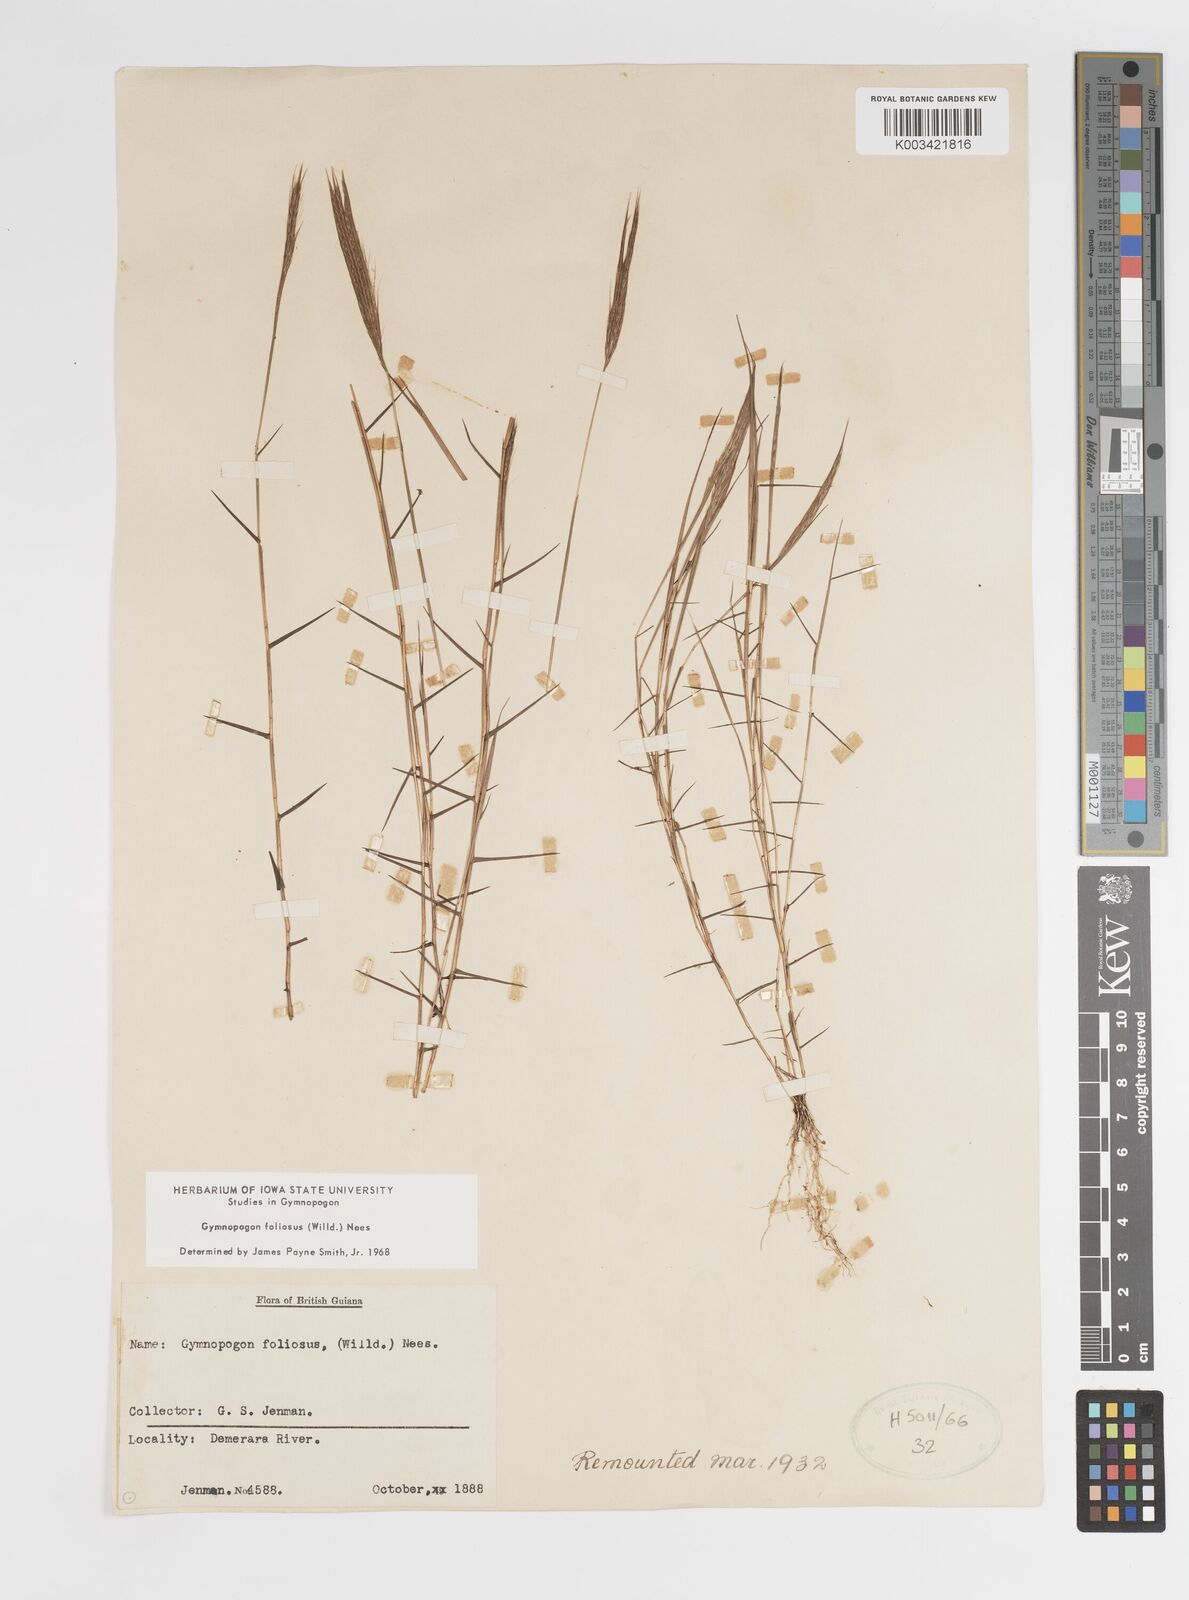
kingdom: Plantae
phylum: Tracheophyta
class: Liliopsida
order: Poales
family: Poaceae
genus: Gymnopogon
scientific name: Gymnopogon foliosus
